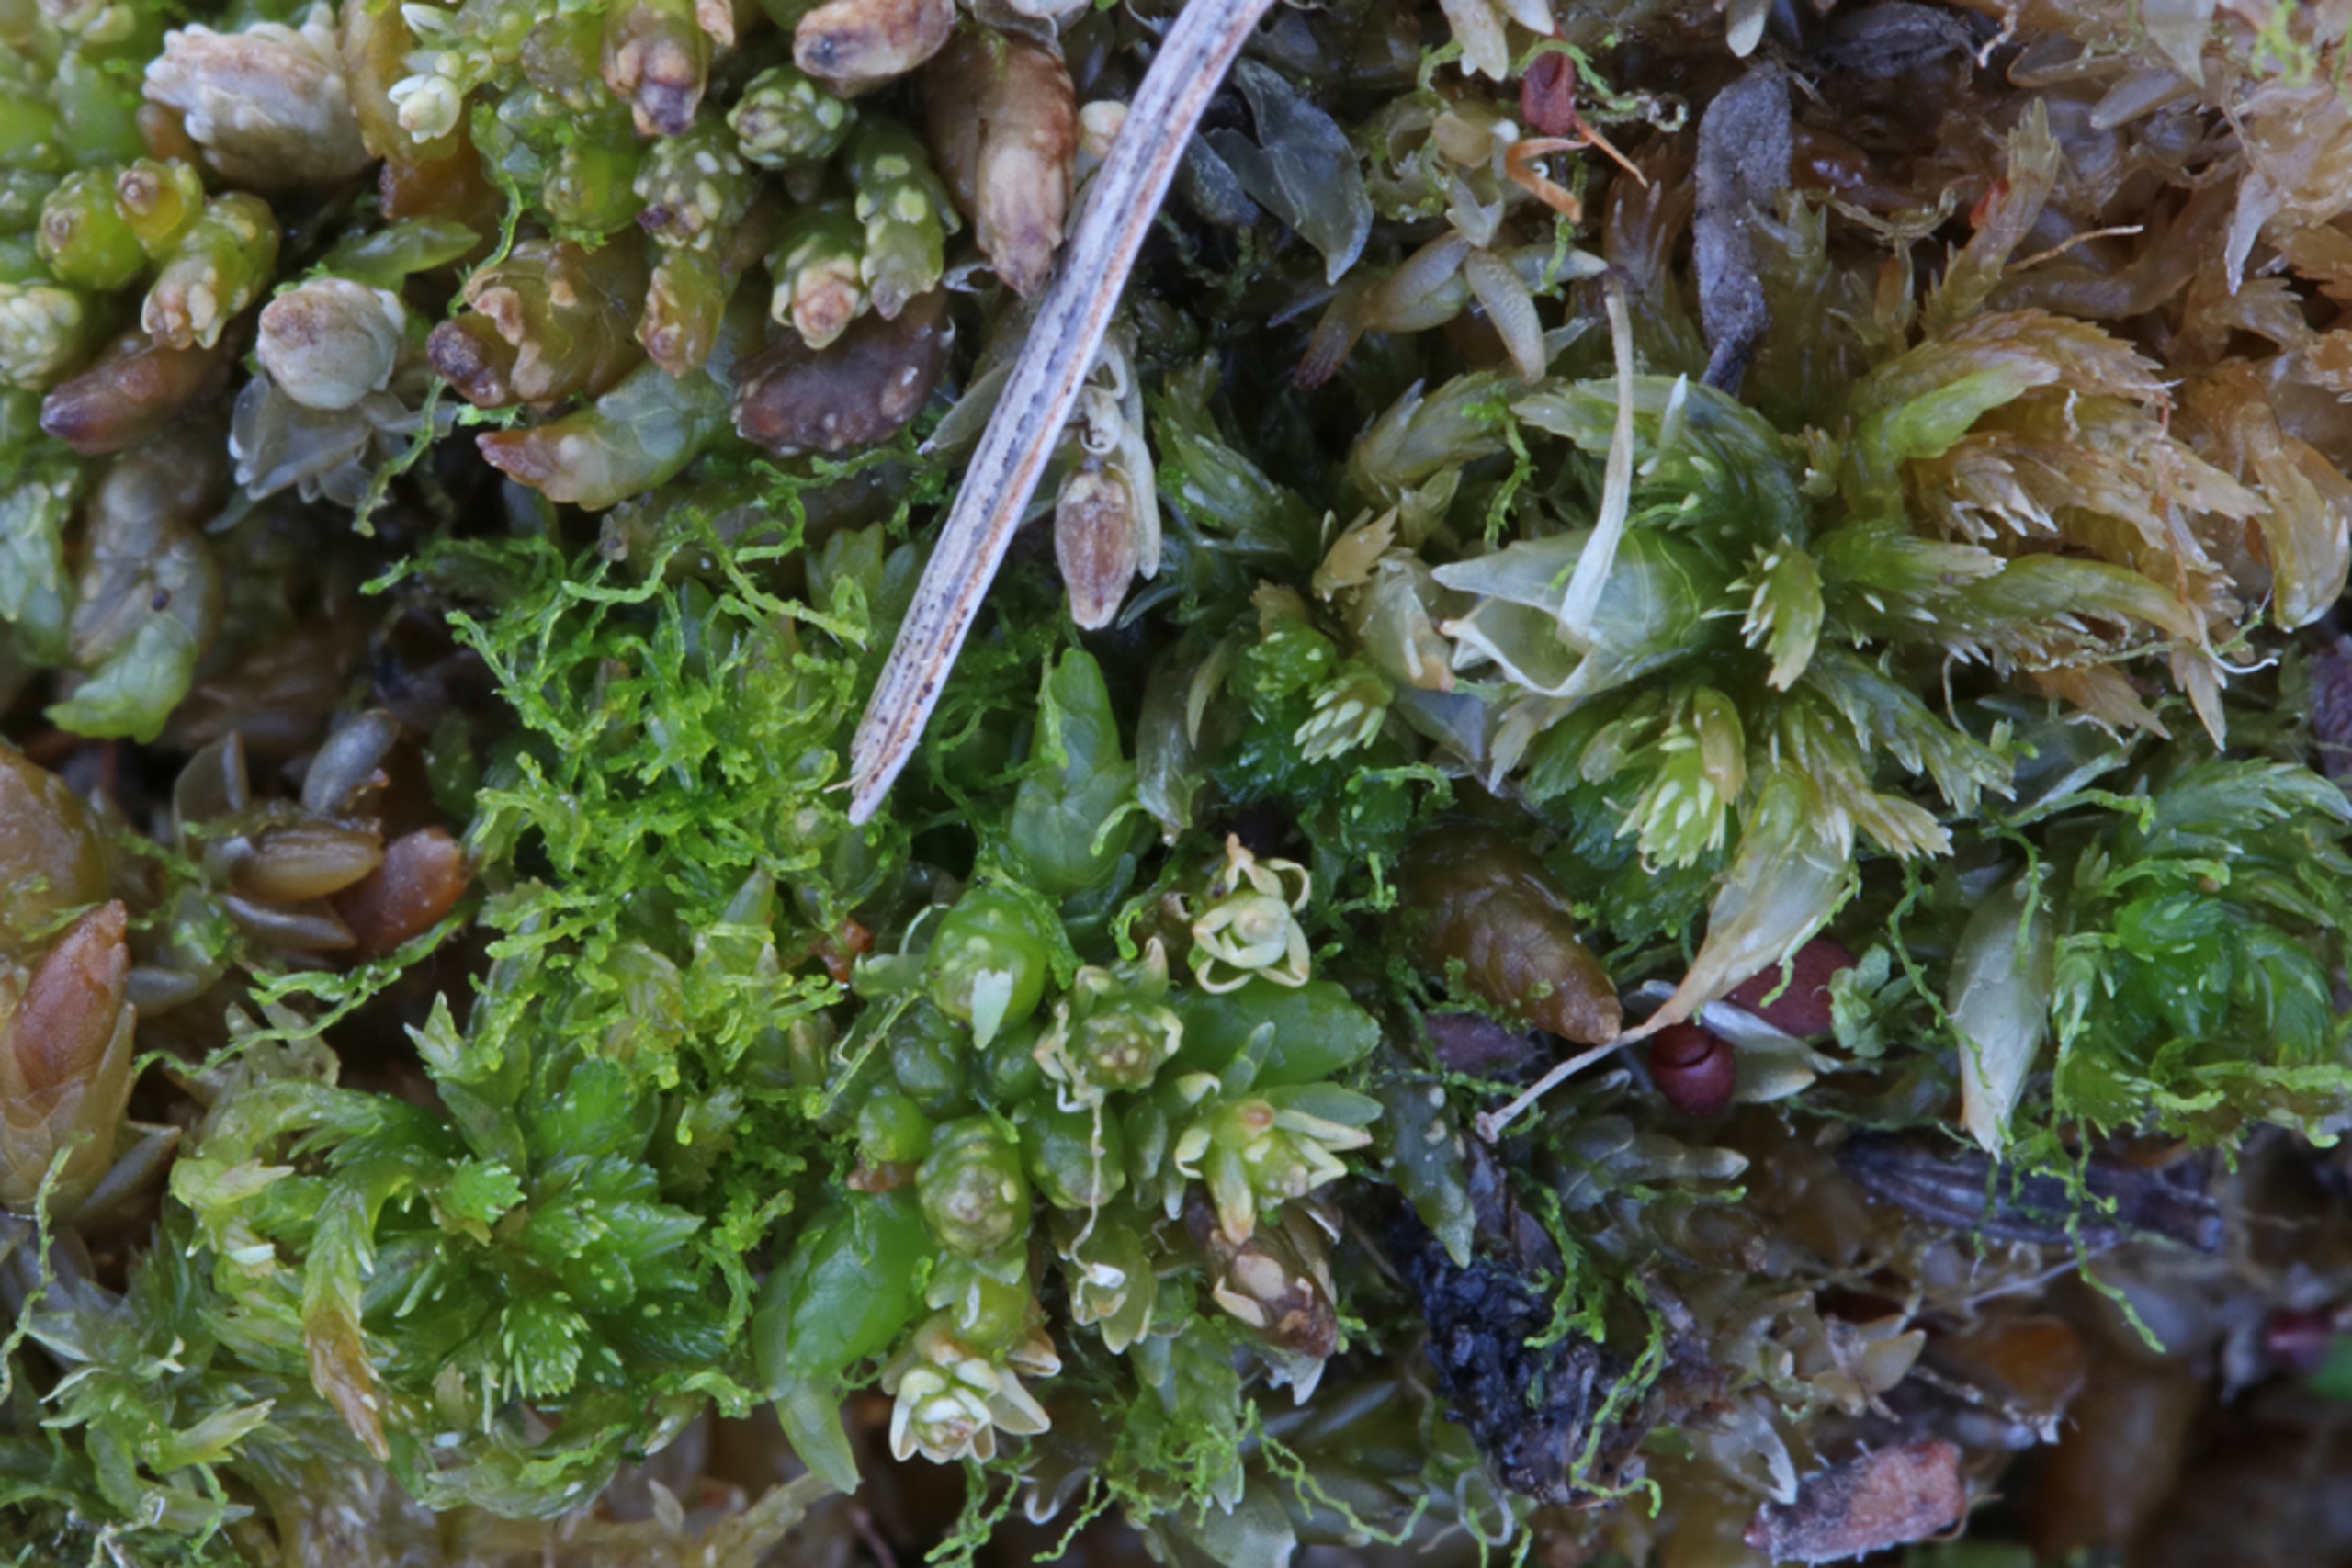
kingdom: Plantae
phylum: Marchantiophyta
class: Jungermanniopsida
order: Jungermanniales
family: Cephaloziellaceae
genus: Cephaloziella
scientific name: Cephaloziella elachista
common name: Liden dværgtråd
